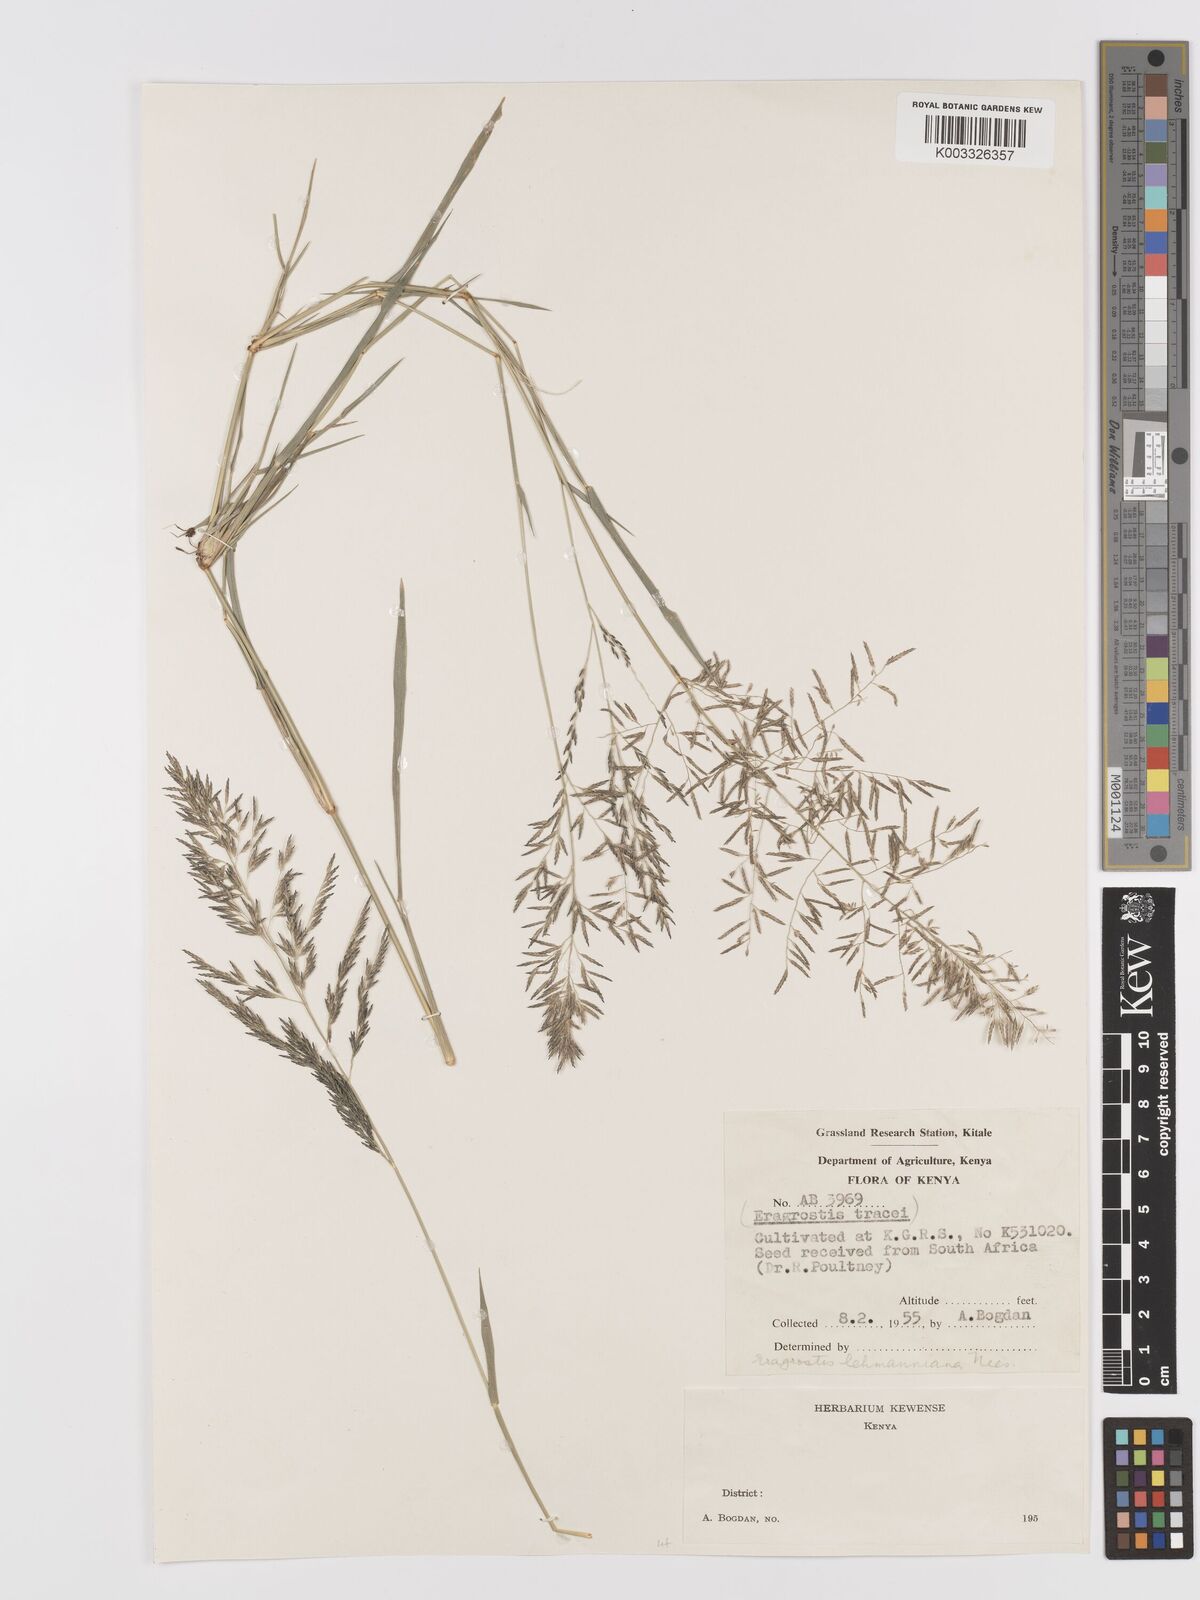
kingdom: Plantae
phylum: Tracheophyta
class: Liliopsida
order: Poales
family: Poaceae
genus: Eragrostis
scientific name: Eragrostis lehmanniana
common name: Lehmann lovegrass
